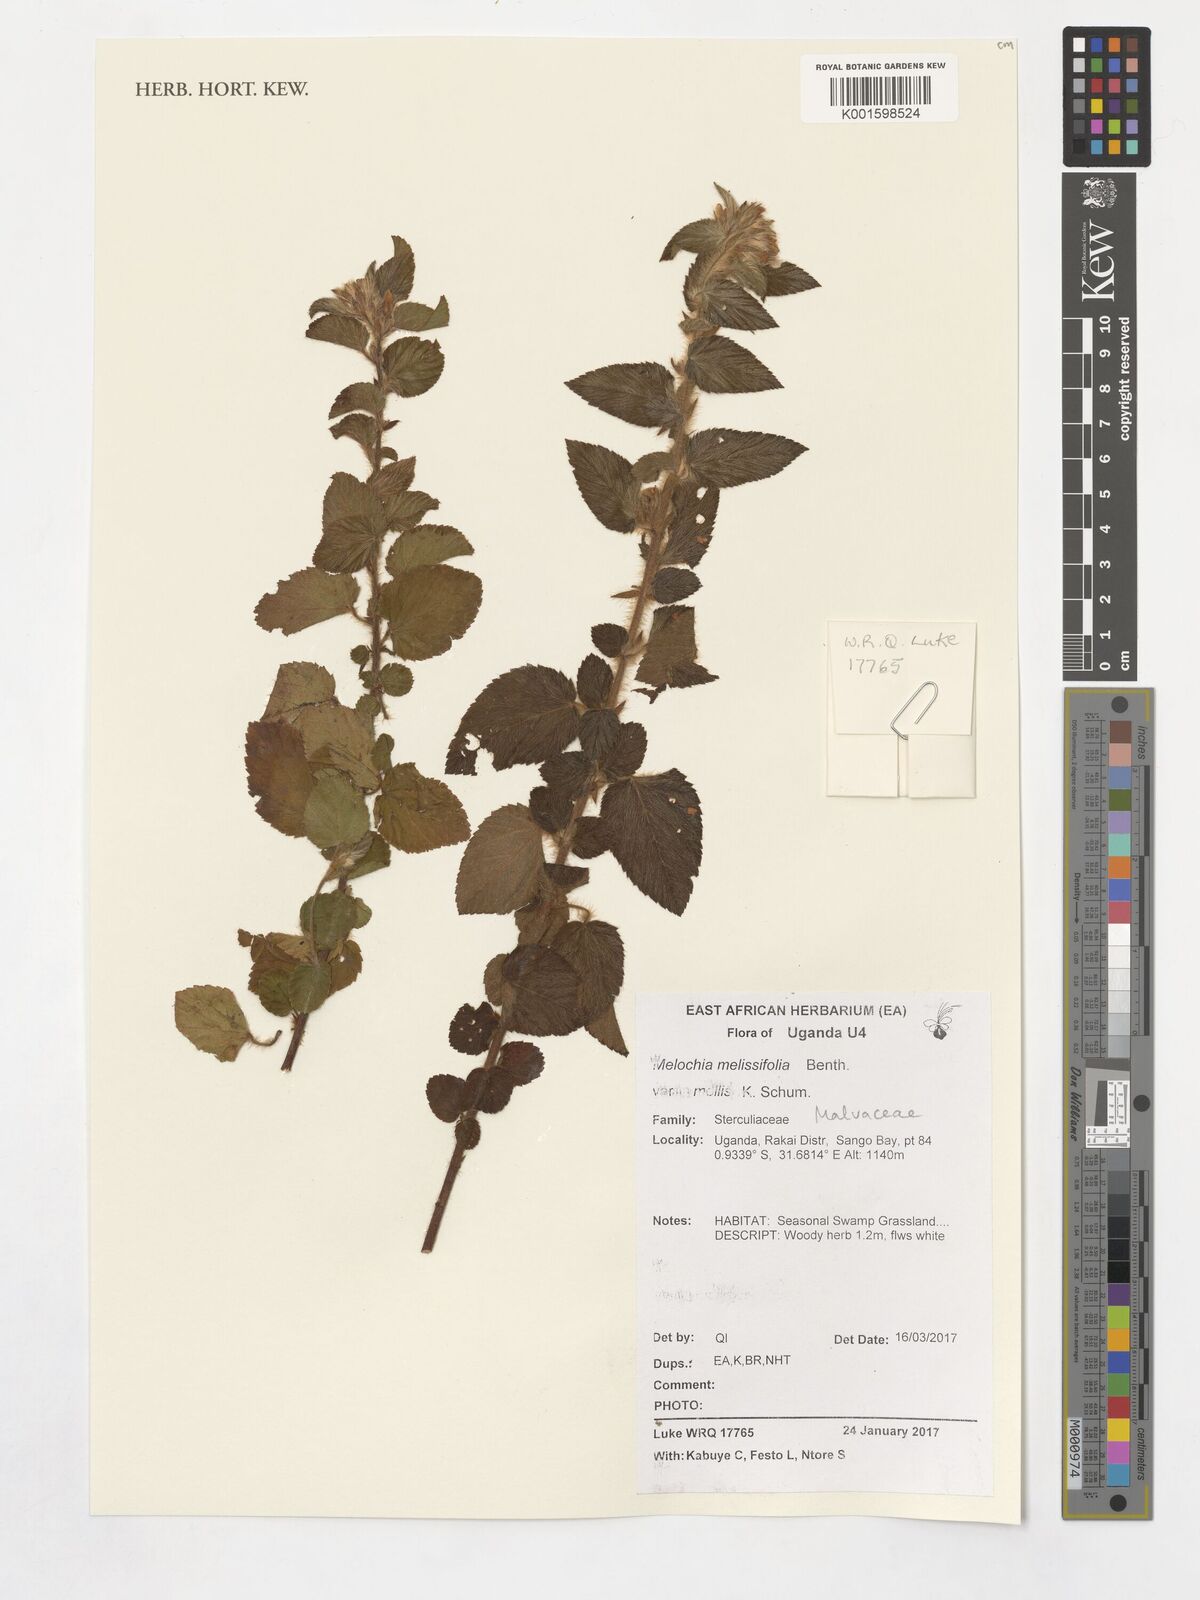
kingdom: Plantae
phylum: Tracheophyta
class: Magnoliopsida
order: Malvales
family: Malvaceae
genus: Melochia
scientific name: Melochia melissifolia
